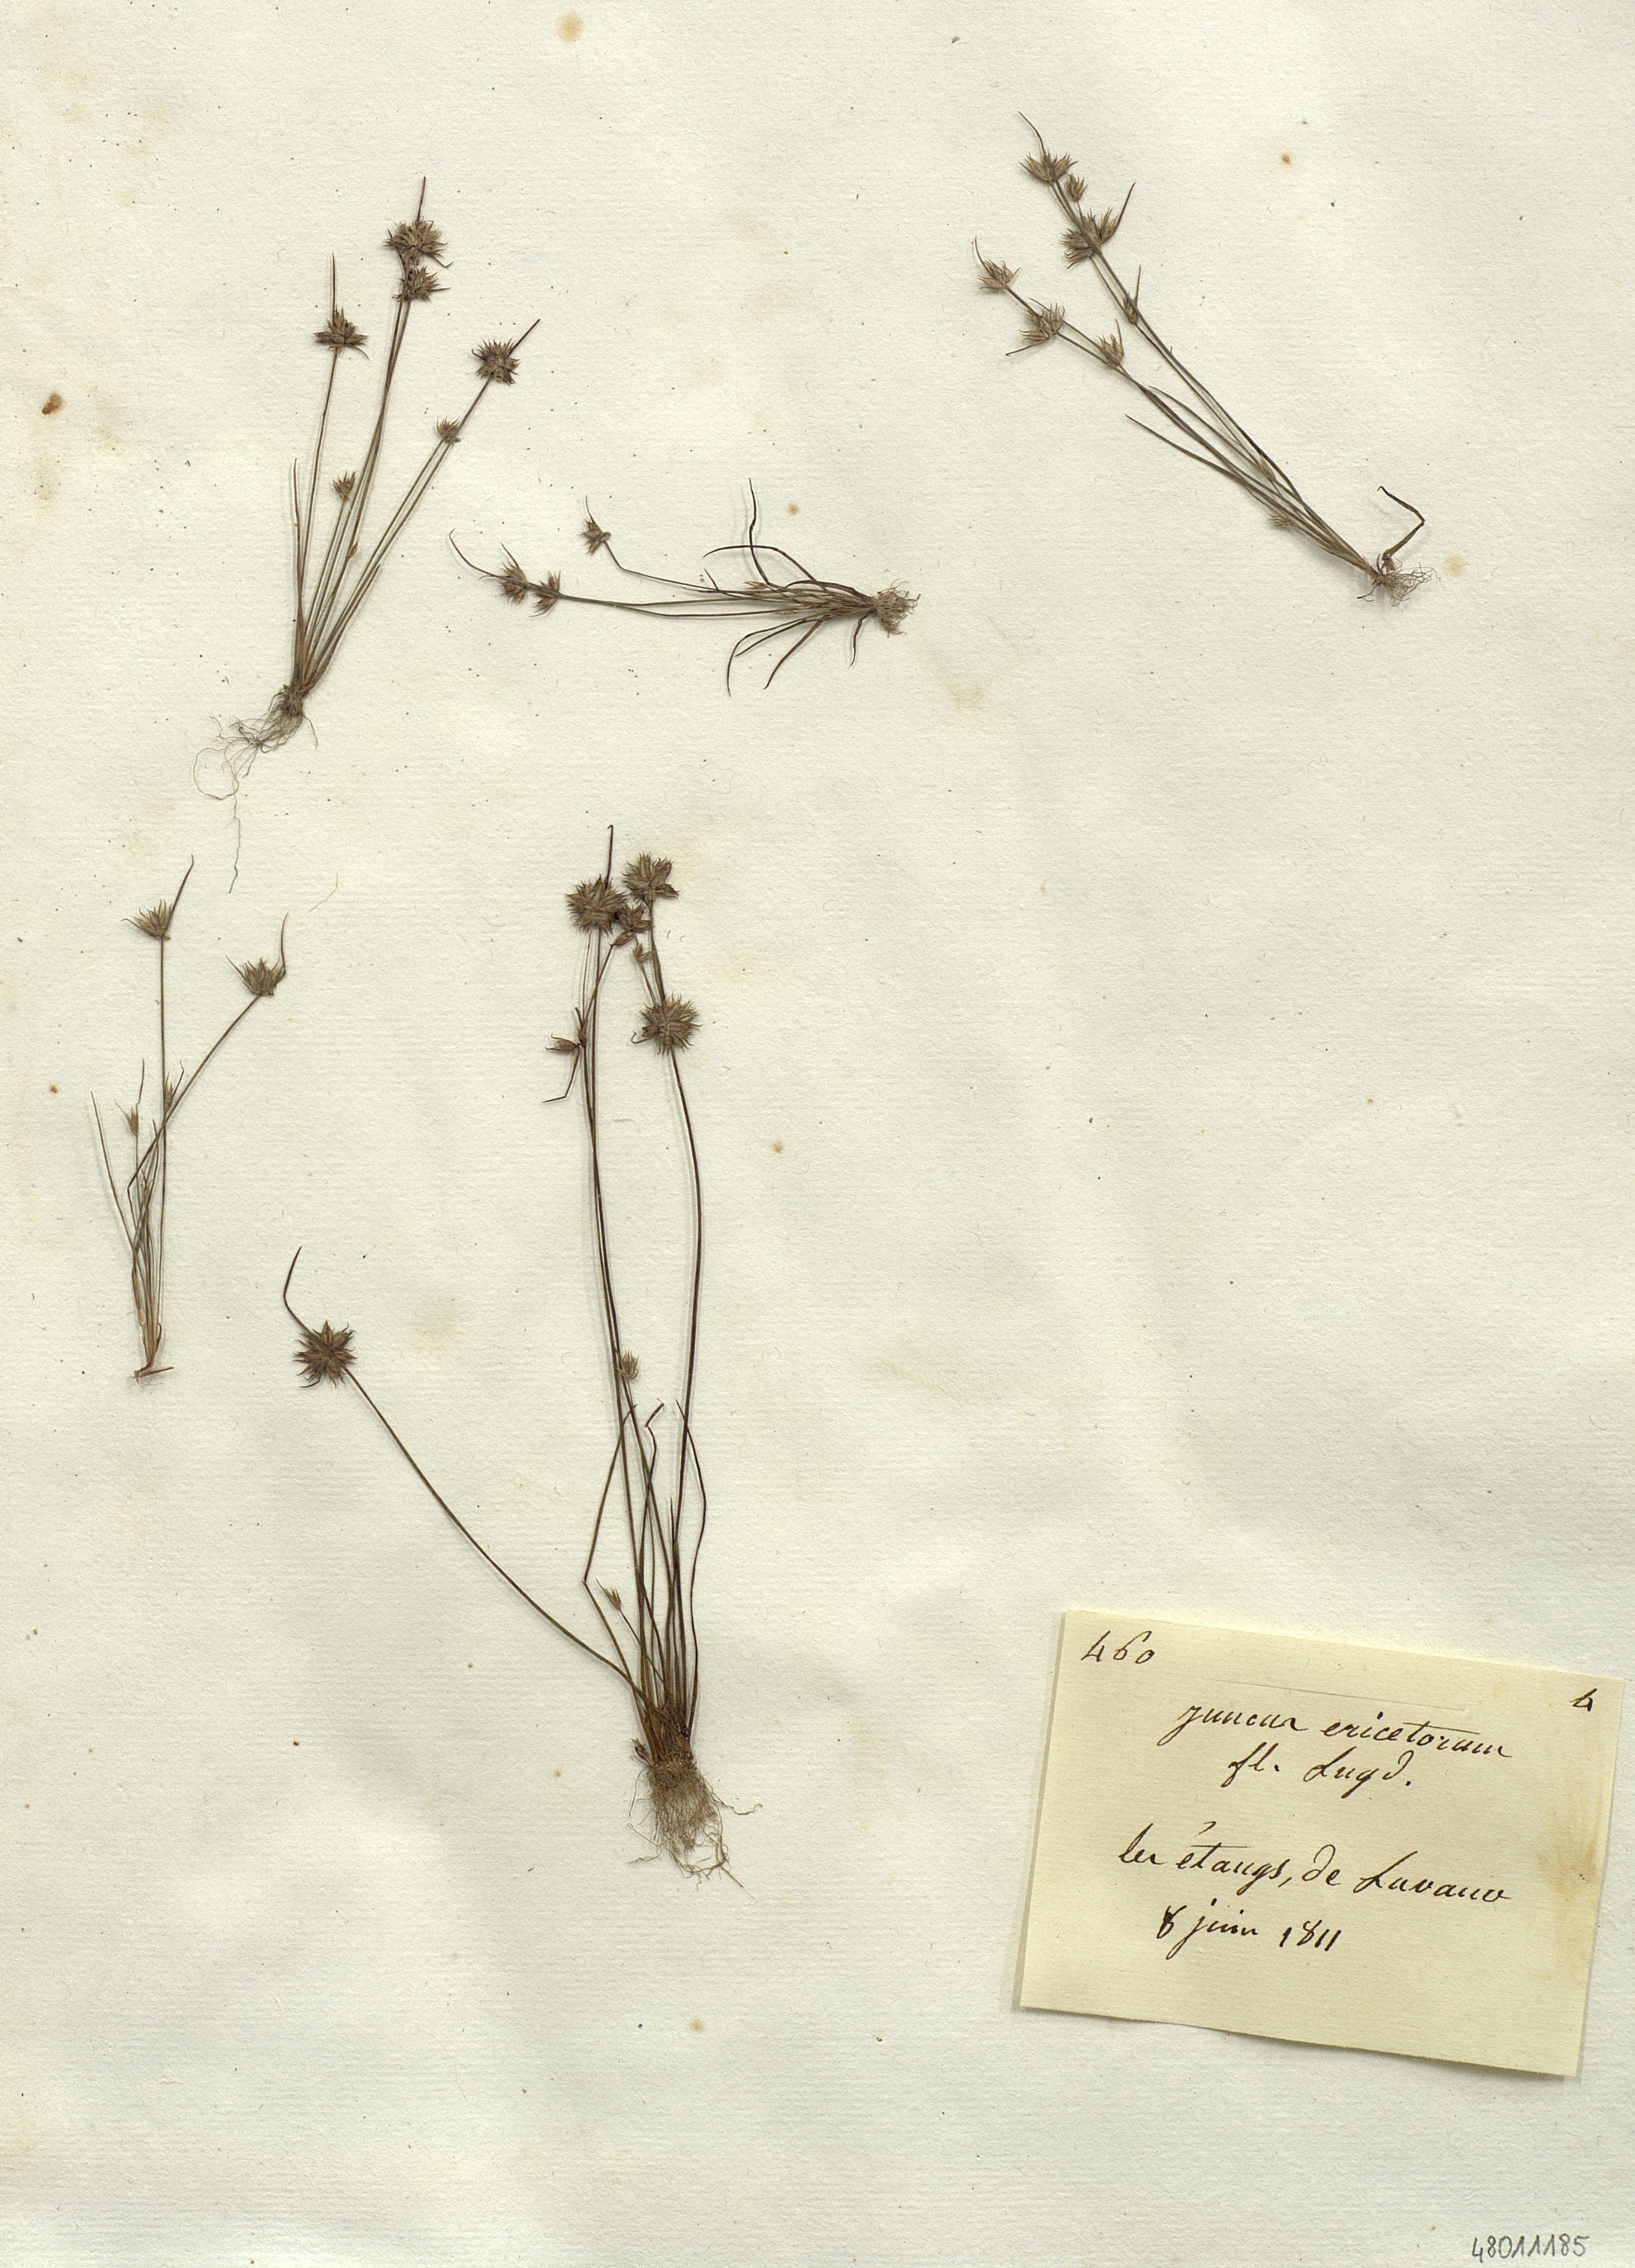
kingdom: Plantae
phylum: Tracheophyta
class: Liliopsida
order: Poales
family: Juncaceae
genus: Juncus
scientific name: Juncus
